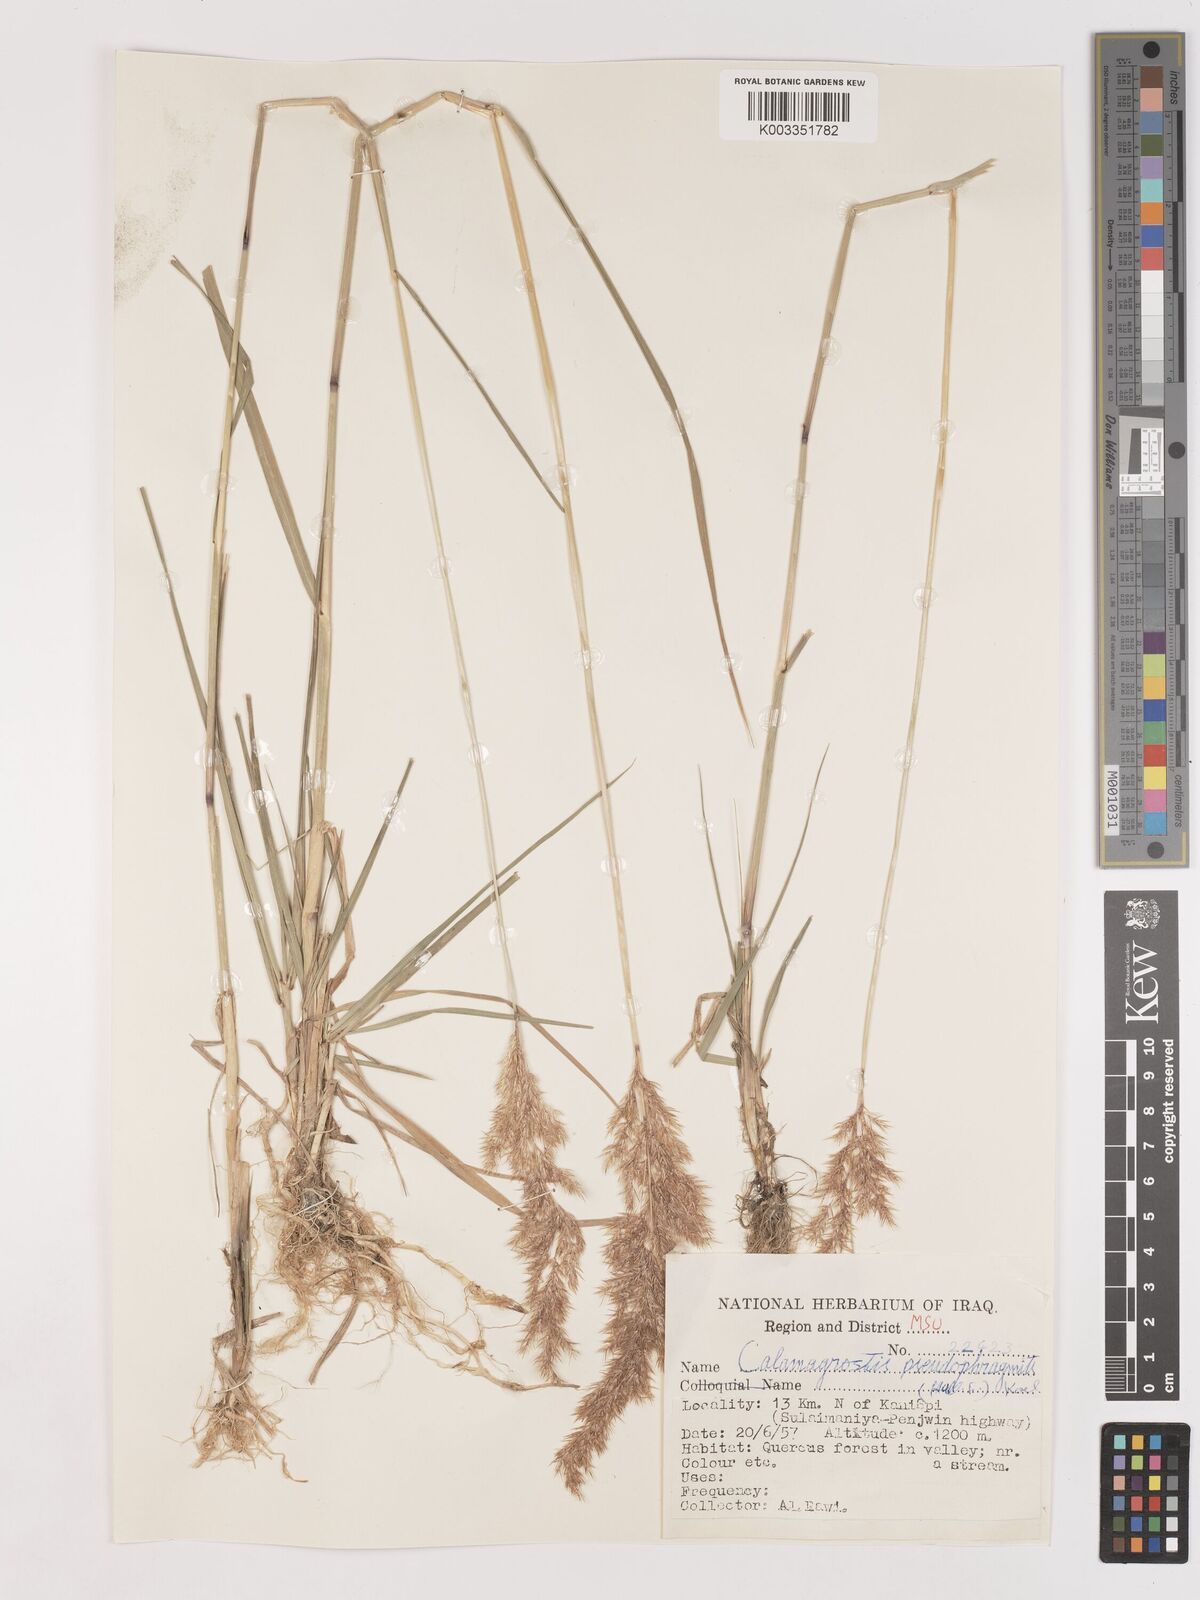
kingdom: Plantae
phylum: Tracheophyta
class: Liliopsida
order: Poales
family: Poaceae
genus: Calamagrostis
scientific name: Calamagrostis pseudophragmites
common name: Coastal small-reed
